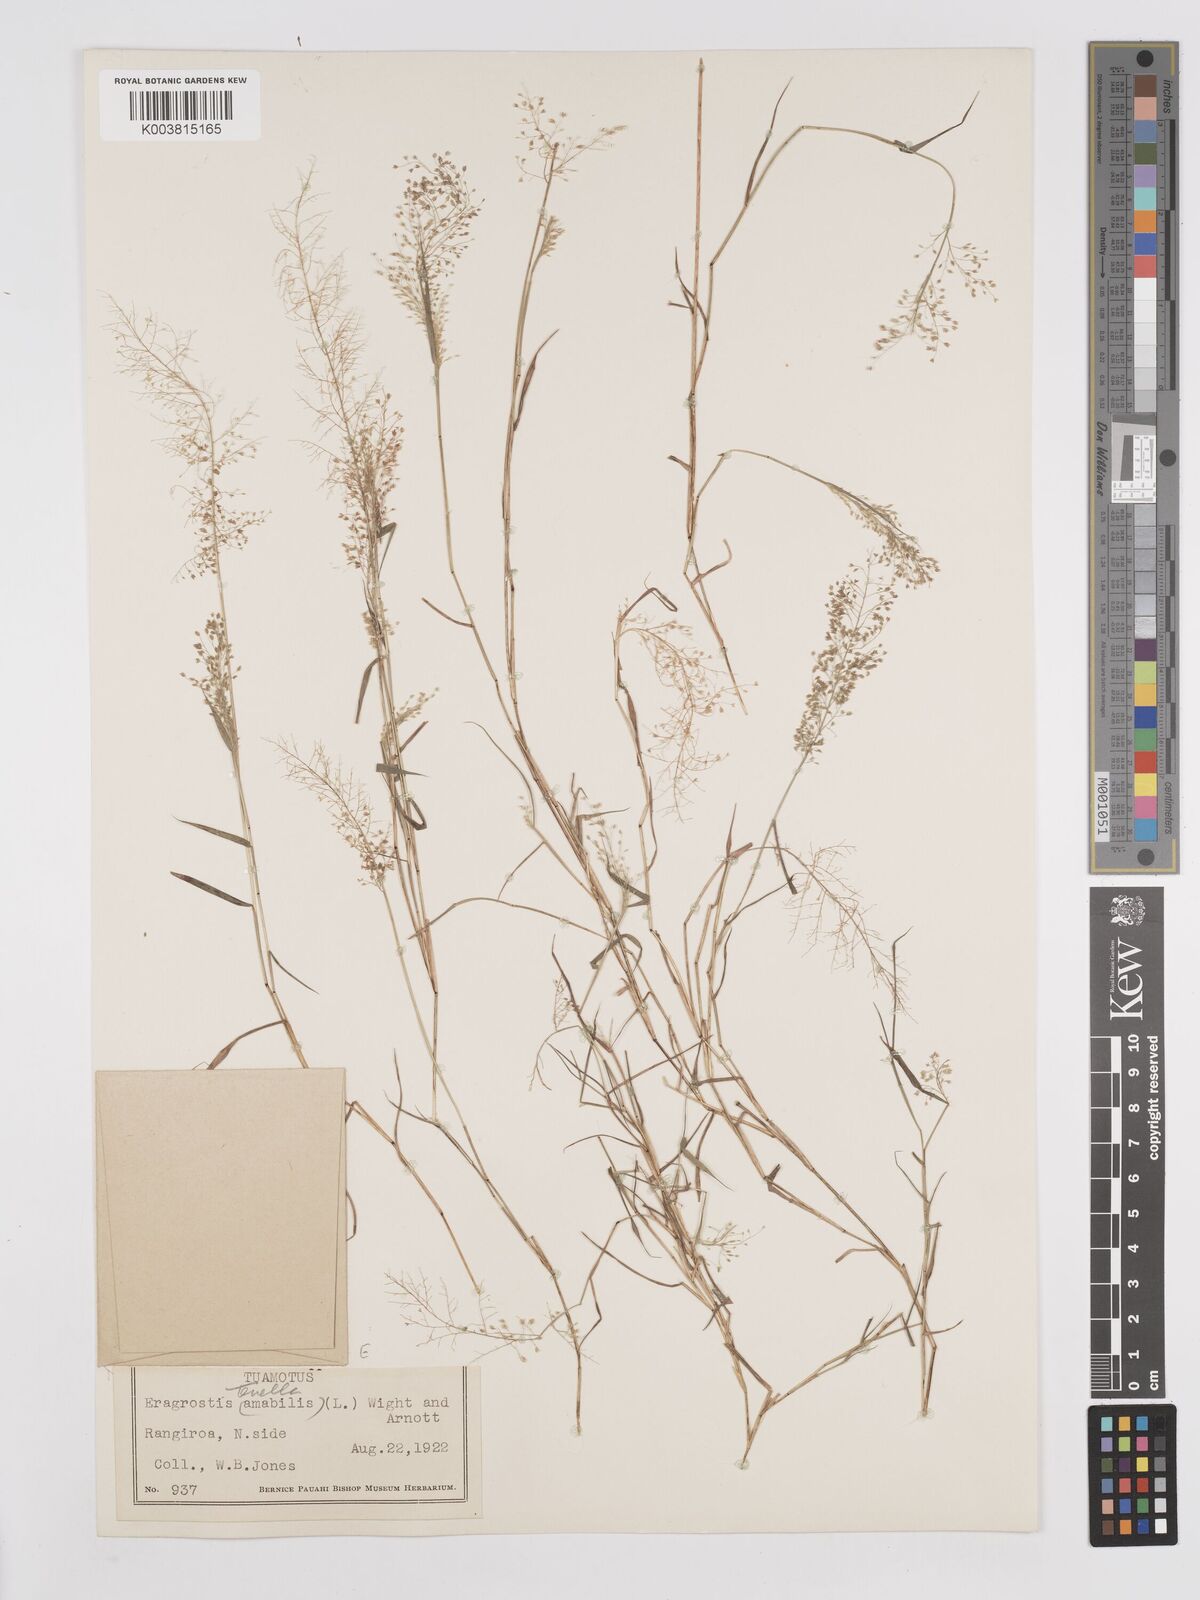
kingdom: Plantae
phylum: Tracheophyta
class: Liliopsida
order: Poales
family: Poaceae
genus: Eragrostis
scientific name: Eragrostis tenella
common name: Japanese lovegrass
